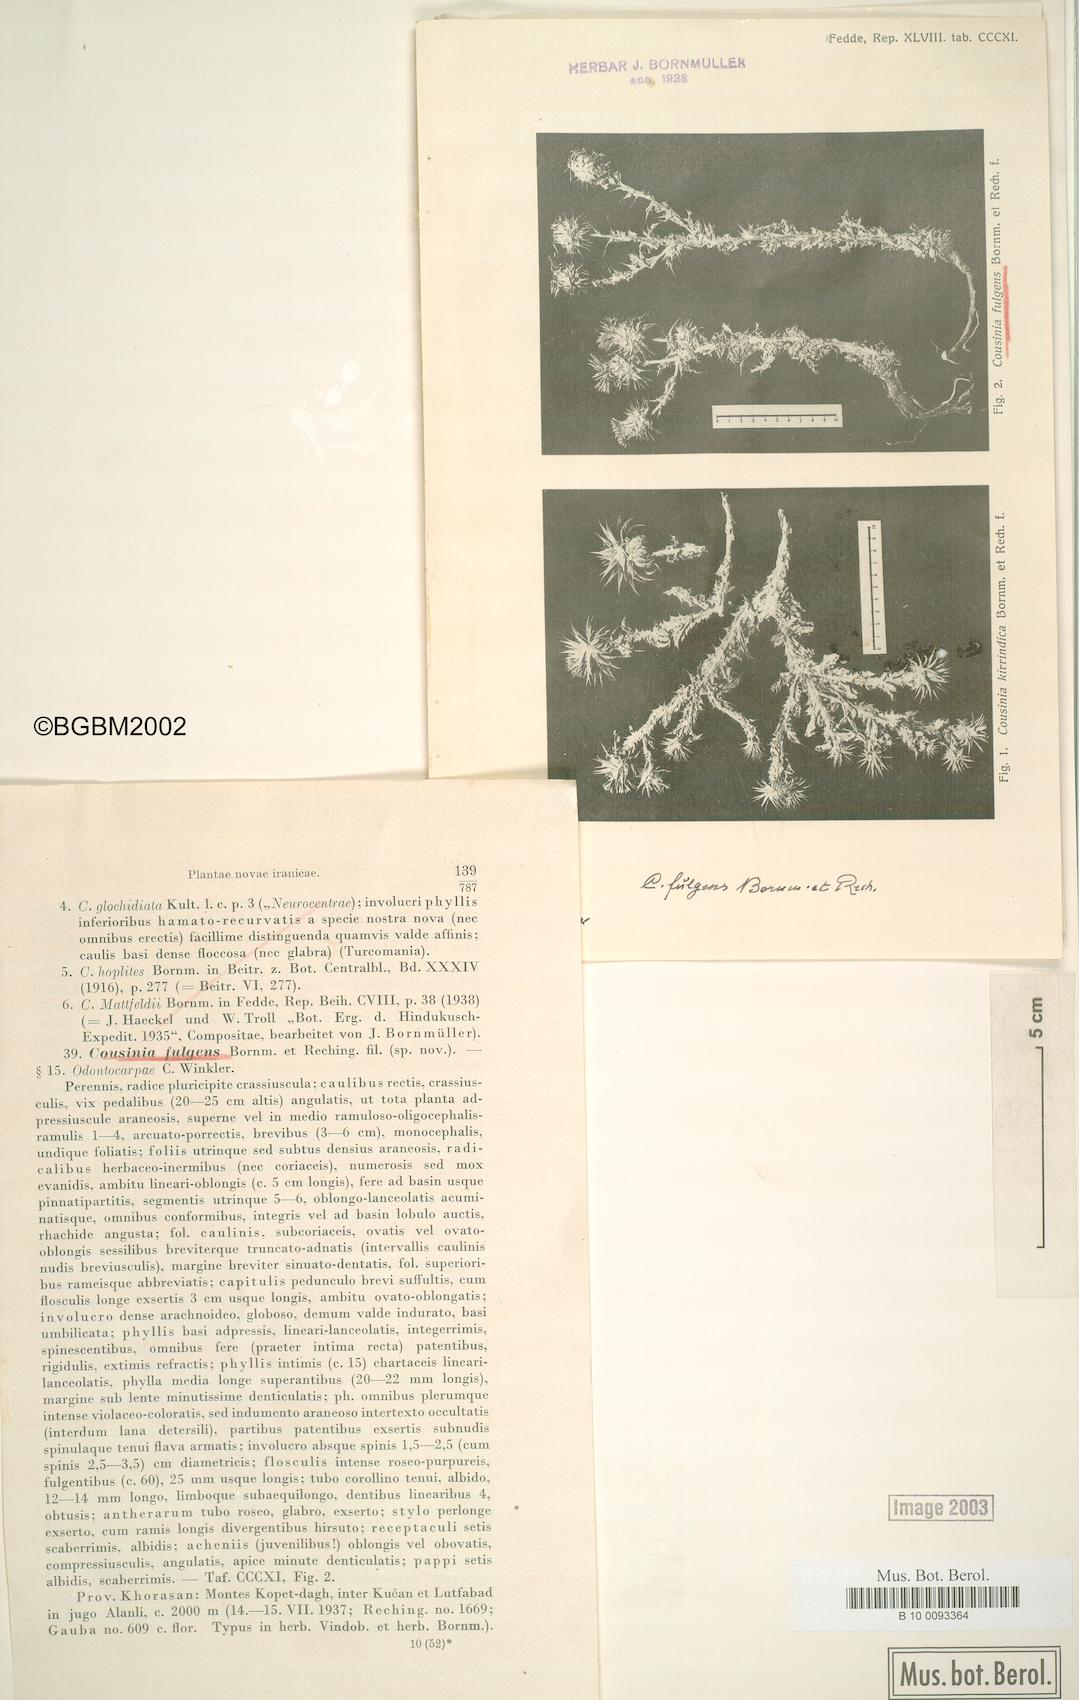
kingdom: Plantae
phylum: Tracheophyta
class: Magnoliopsida
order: Asterales
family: Asteraceae
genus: Cousinia
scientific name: Cousinia smirnowii
